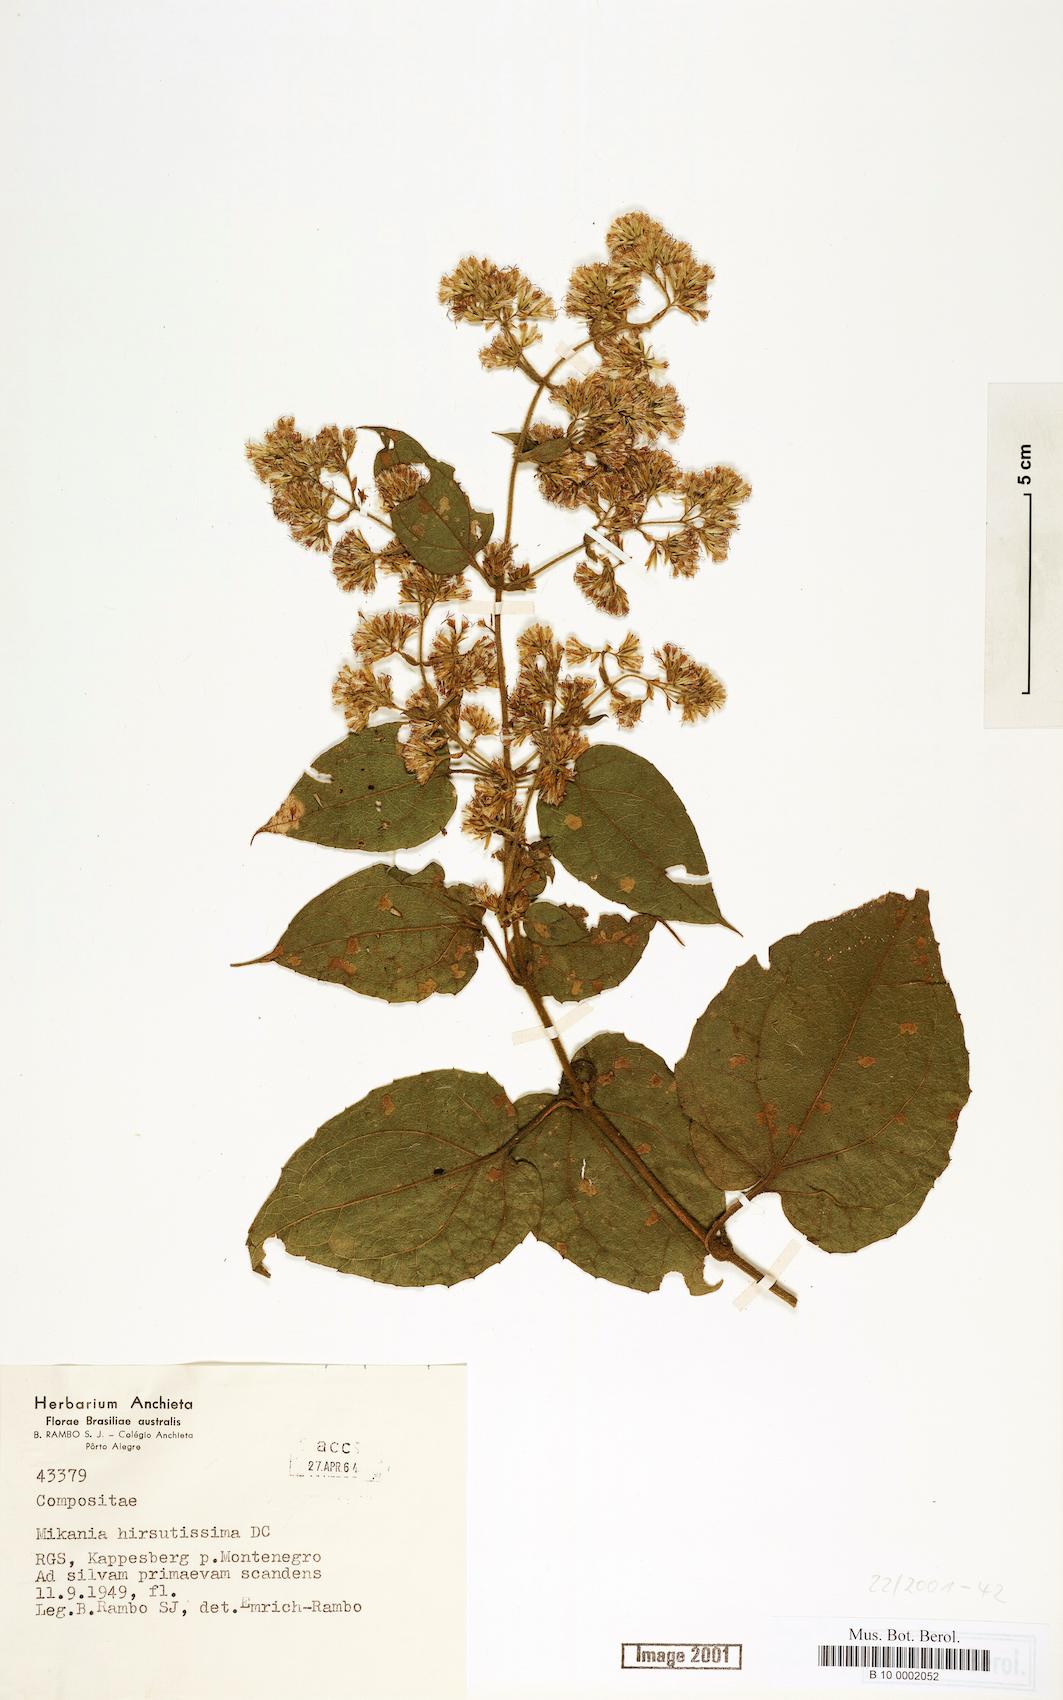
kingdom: Plantae
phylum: Tracheophyta
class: Magnoliopsida
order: Asterales
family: Asteraceae
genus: Mikania
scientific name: Mikania banisteriae
